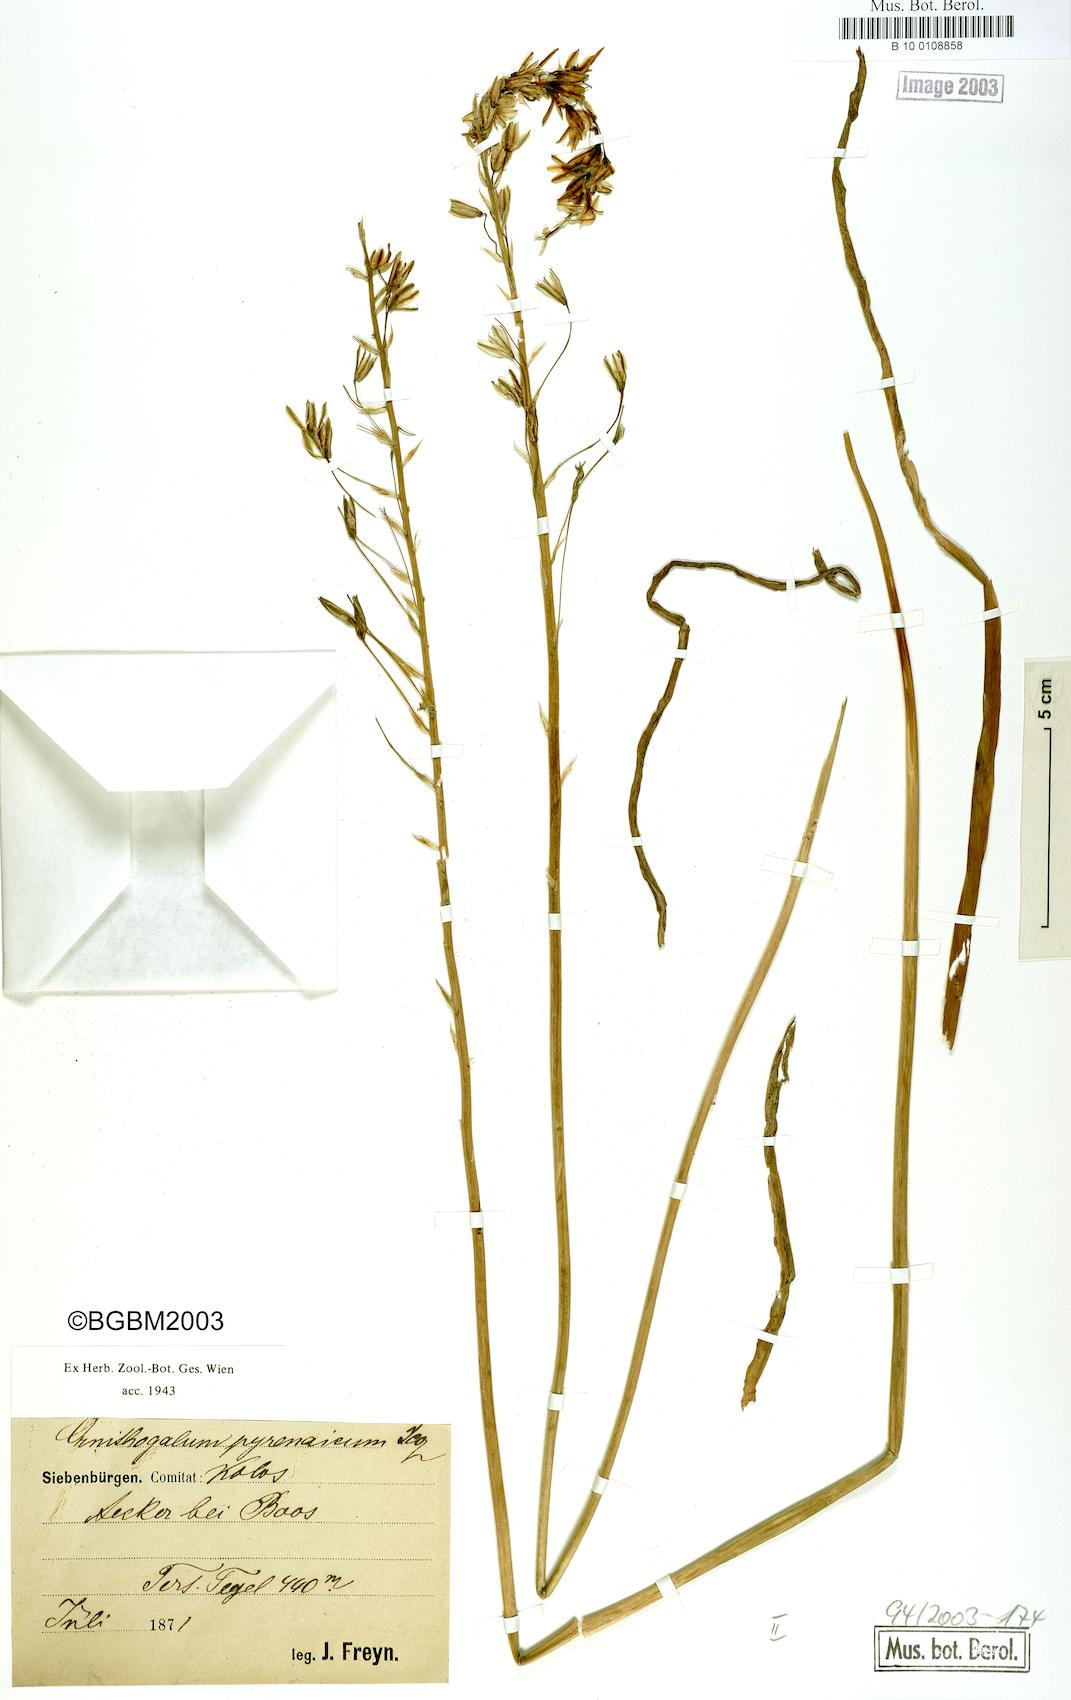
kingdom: Plantae
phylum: Tracheophyta
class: Liliopsida
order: Asparagales
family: Asparagaceae
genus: Ornithogalum
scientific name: Ornithogalum pyrenaicum
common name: Spiked star-of-bethlehem
